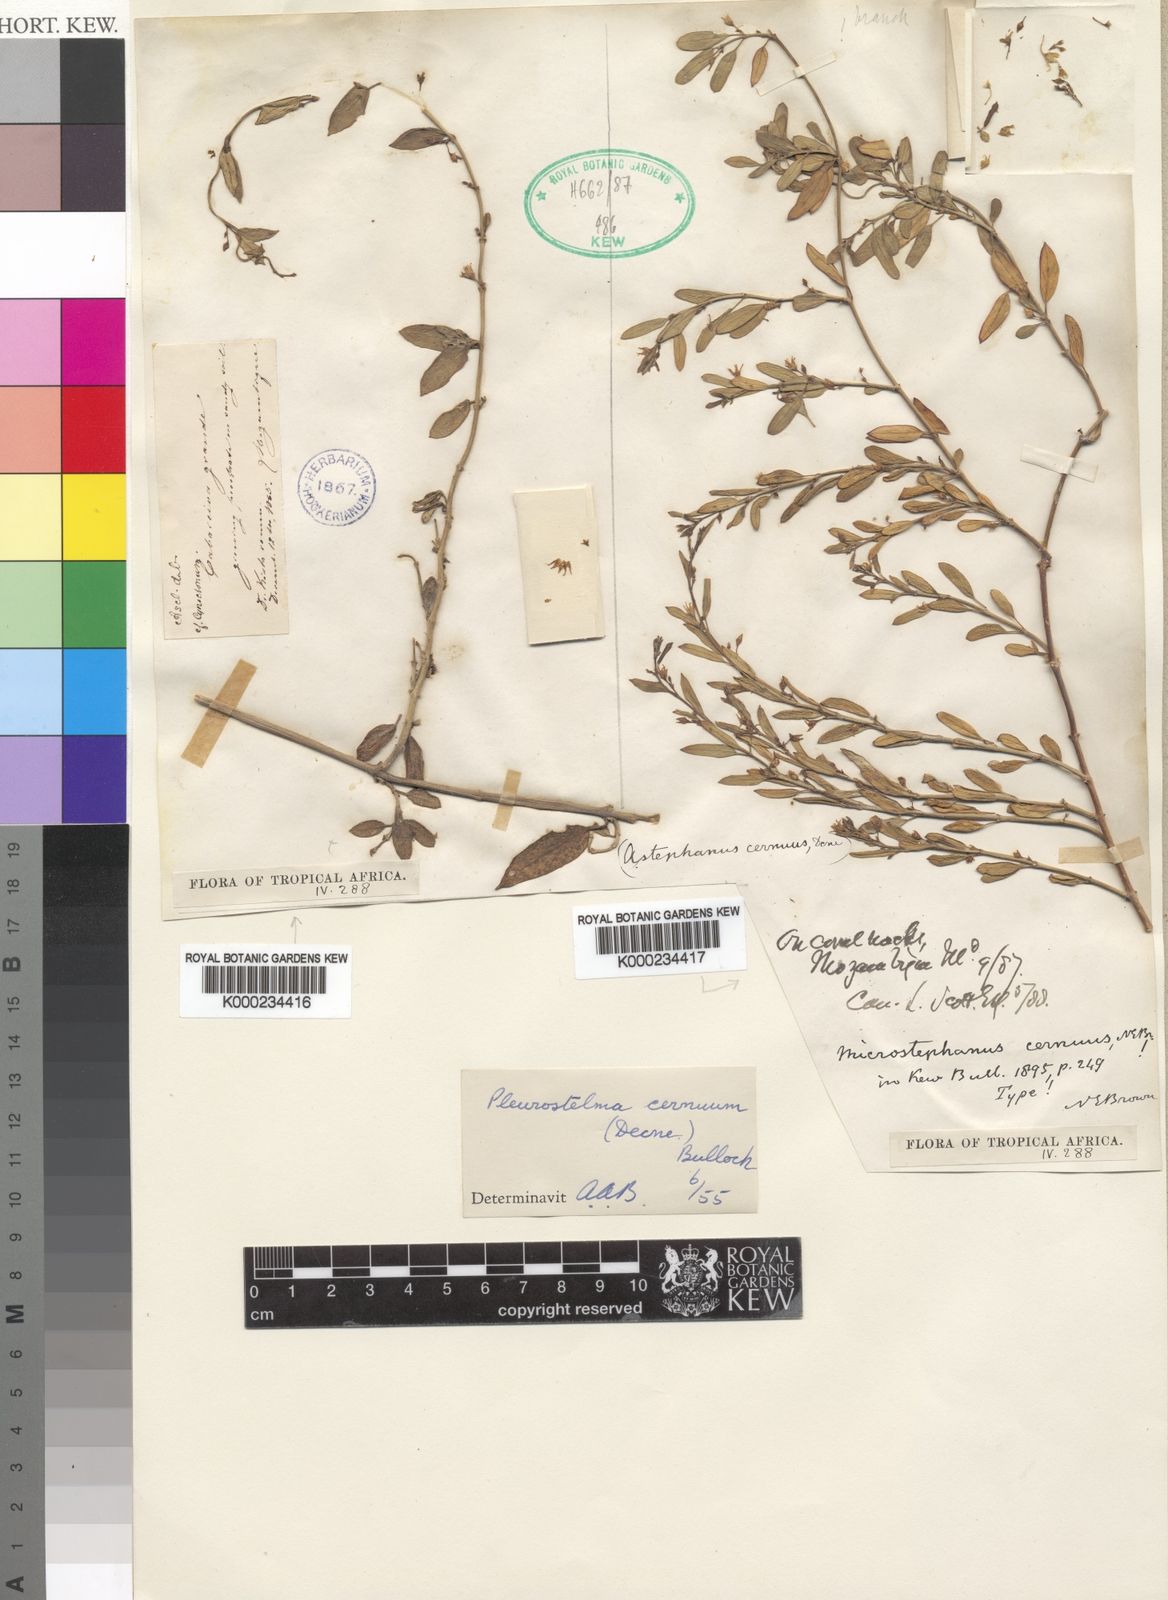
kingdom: Plantae
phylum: Tracheophyta
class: Magnoliopsida
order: Gentianales
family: Apocynaceae
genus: Vincetoxicum
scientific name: Vincetoxicum cernuum
